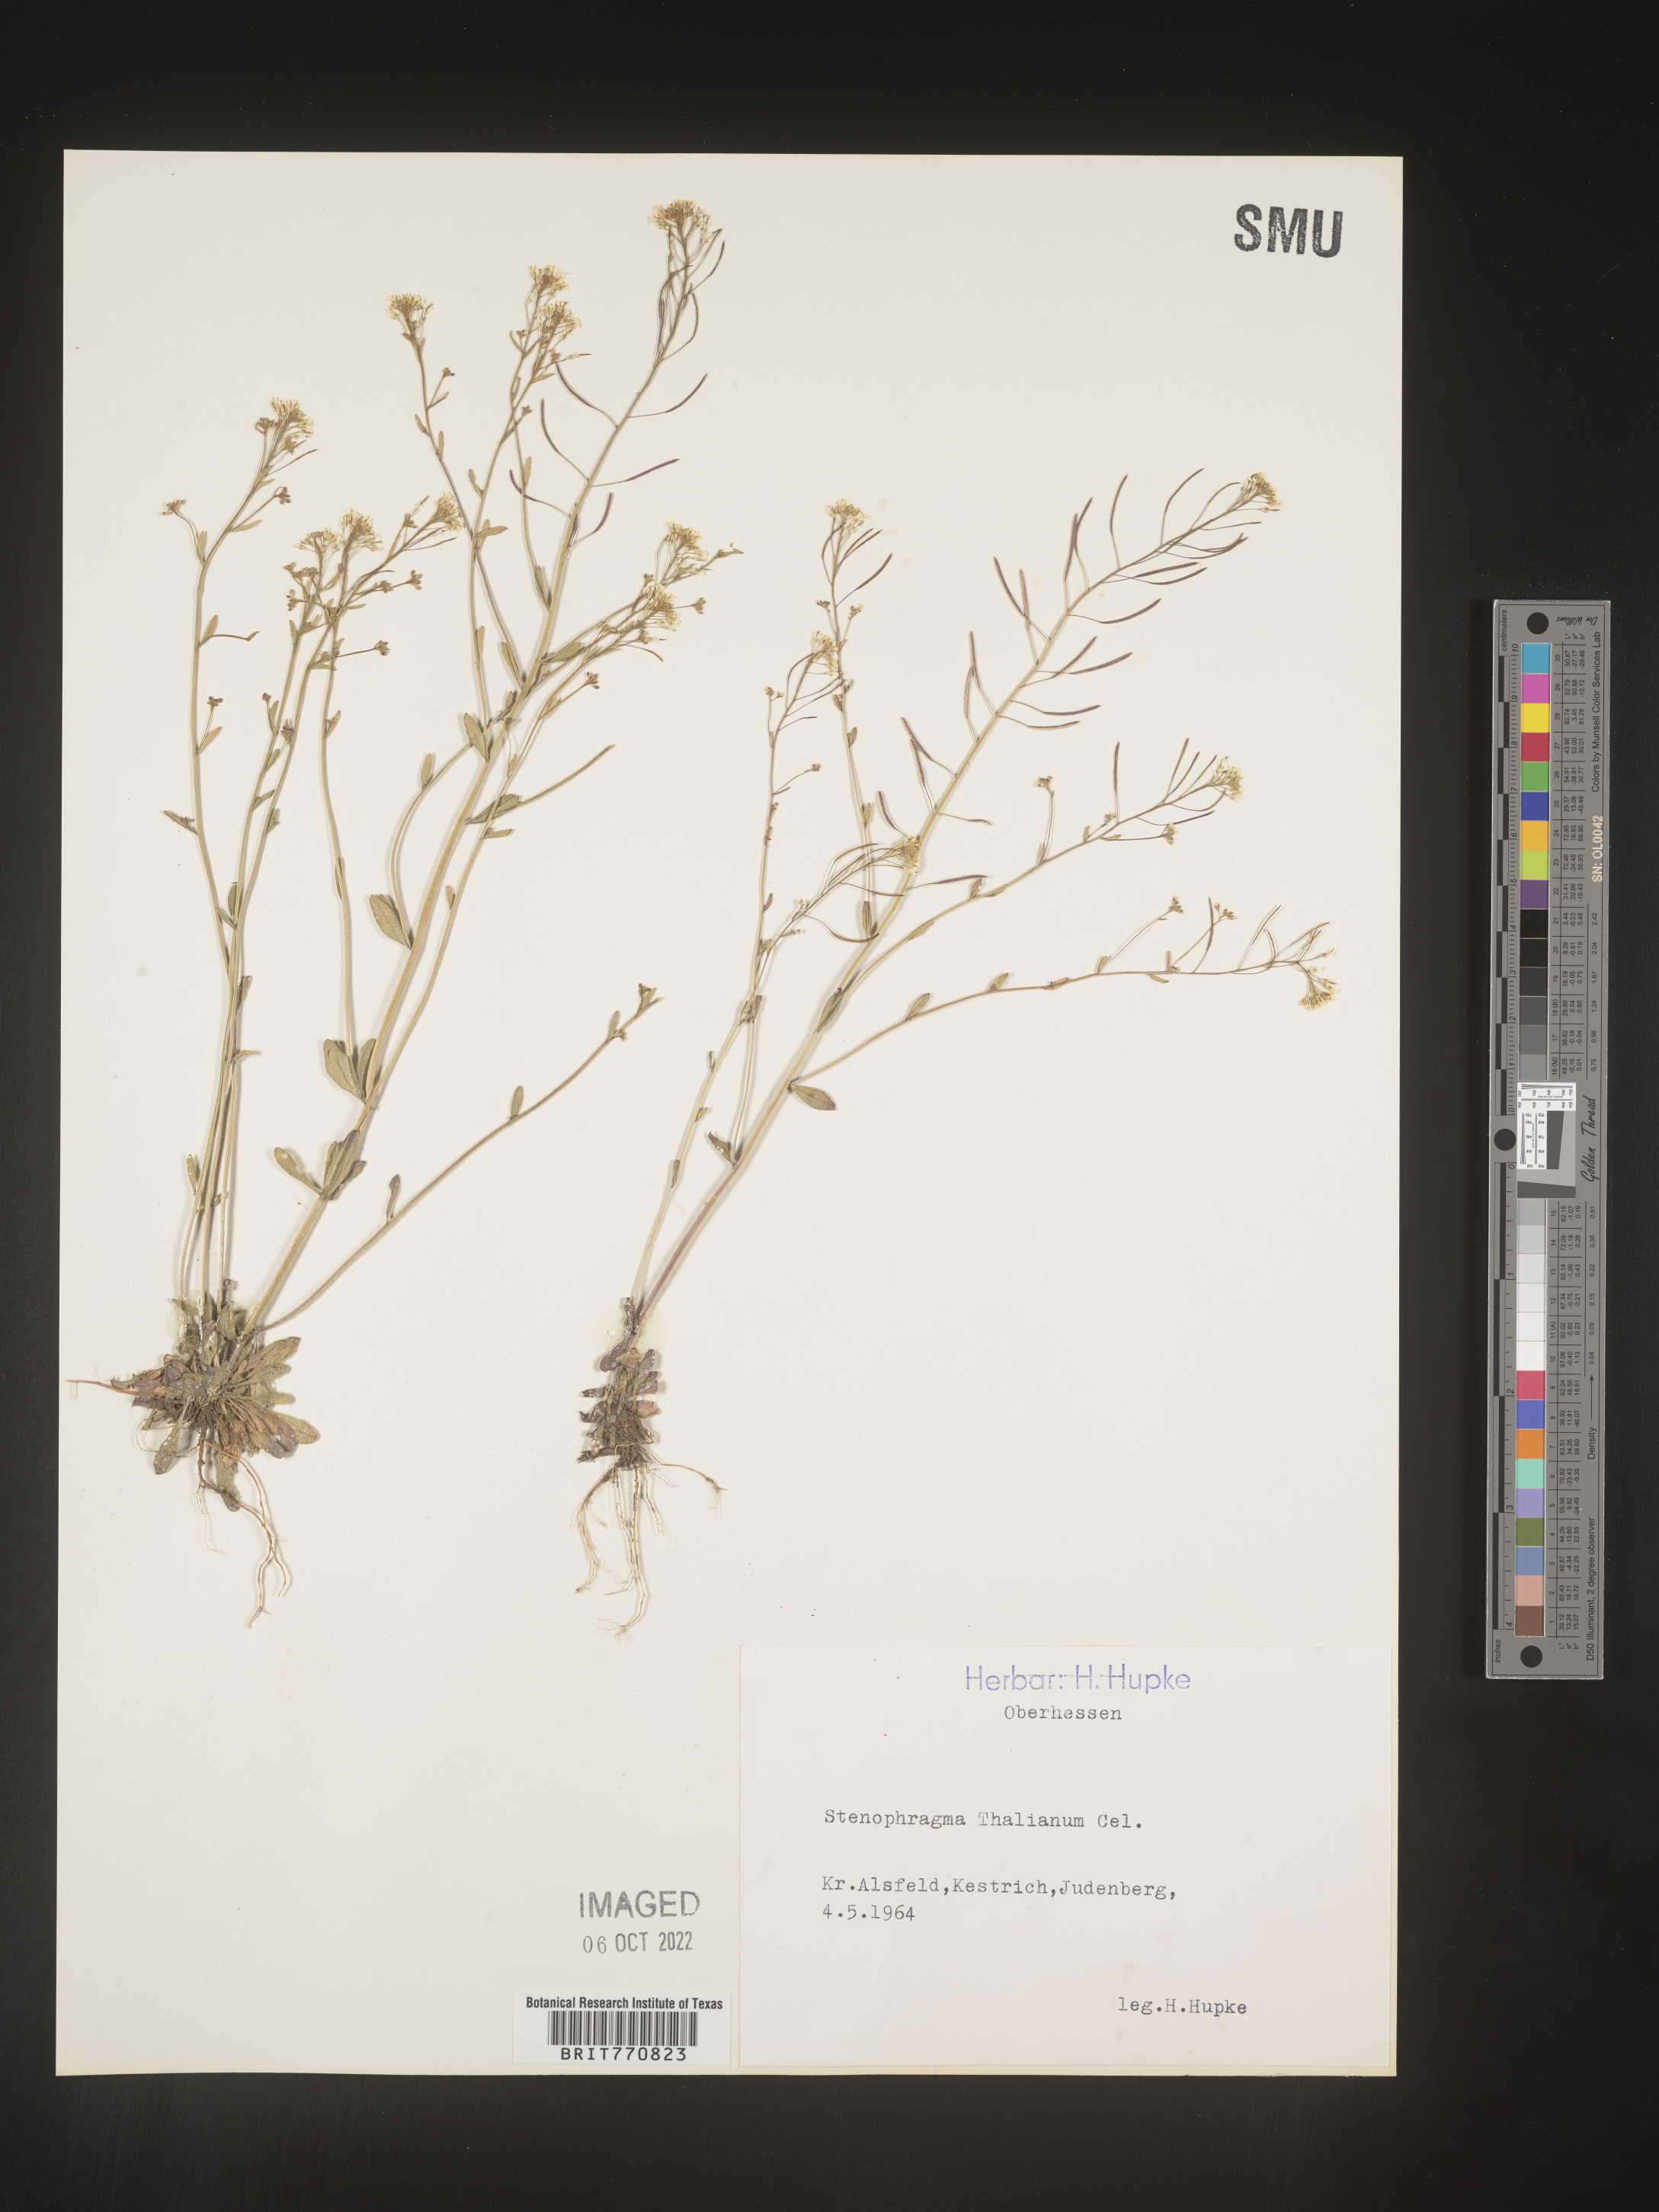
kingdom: Plantae
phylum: Tracheophyta
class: Magnoliopsida
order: Brassicales
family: Brassicaceae
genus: Arabidopsis
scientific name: Arabidopsis
